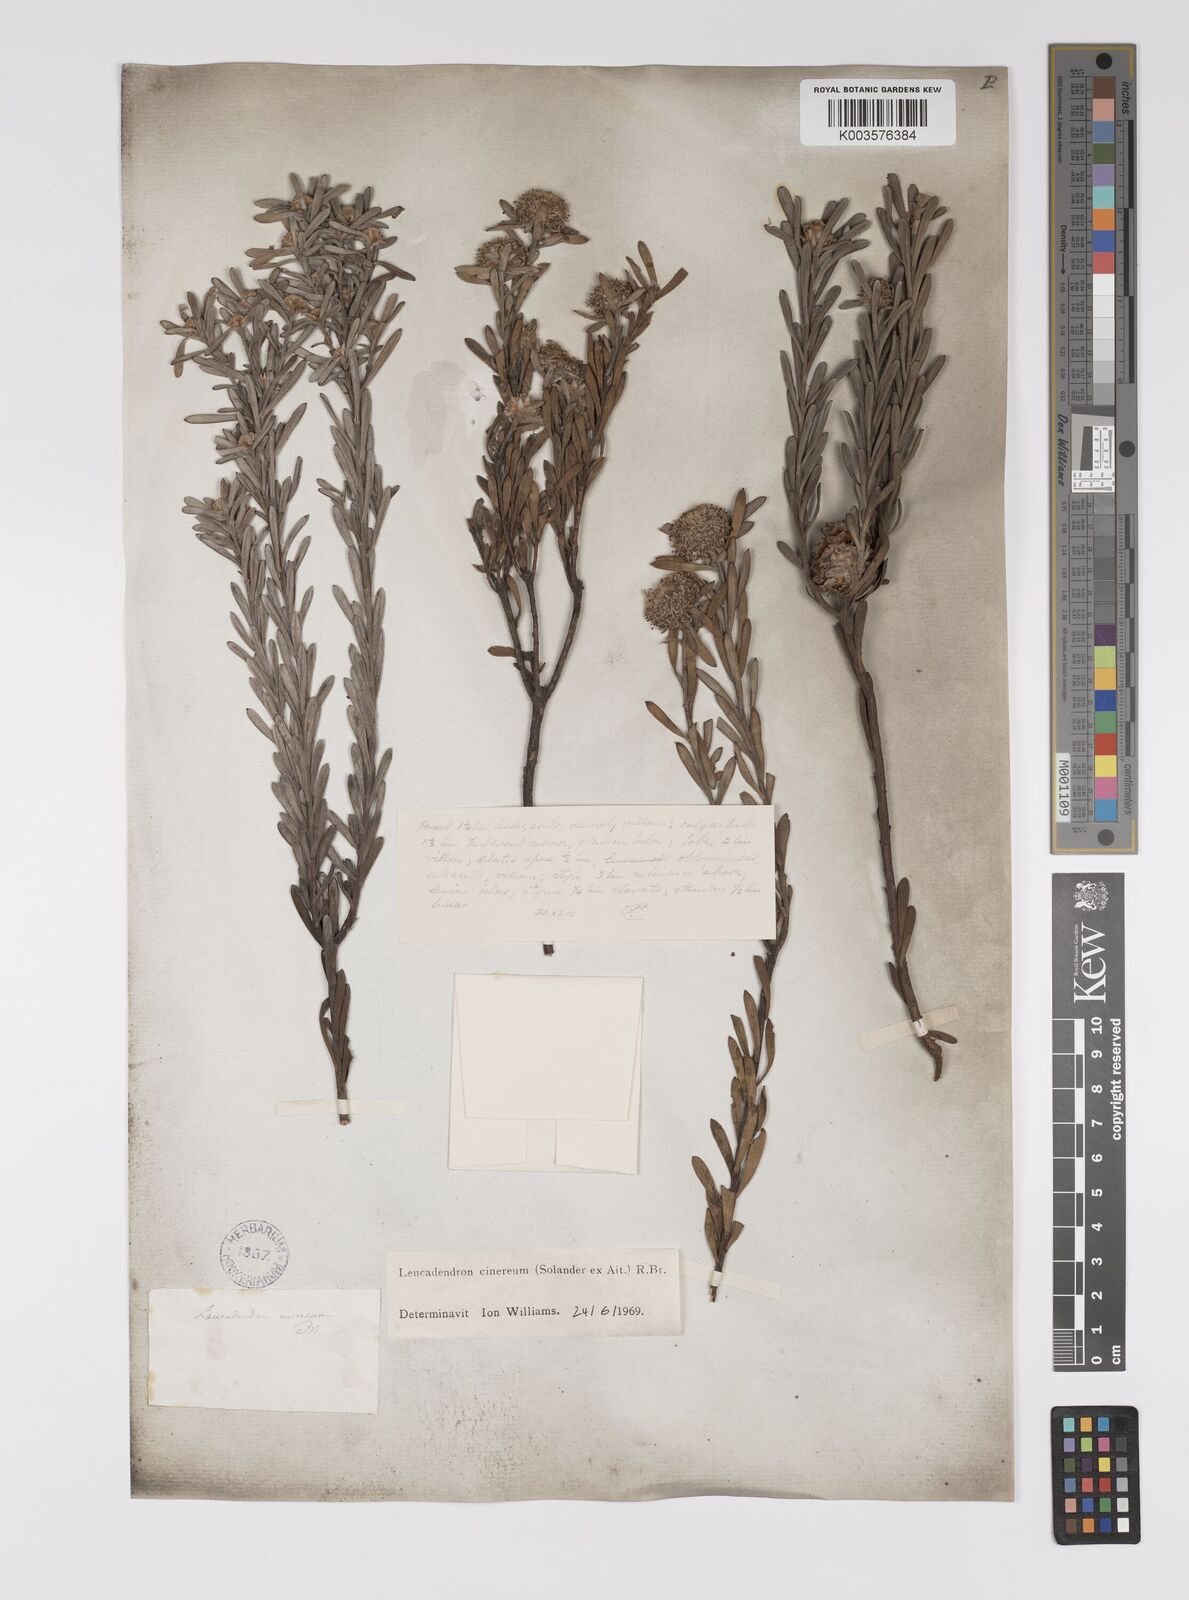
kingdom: Plantae
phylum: Tracheophyta
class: Magnoliopsida
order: Proteales
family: Proteaceae
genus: Leucadendron
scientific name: Leucadendron cinereum
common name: Scraggly conebush
